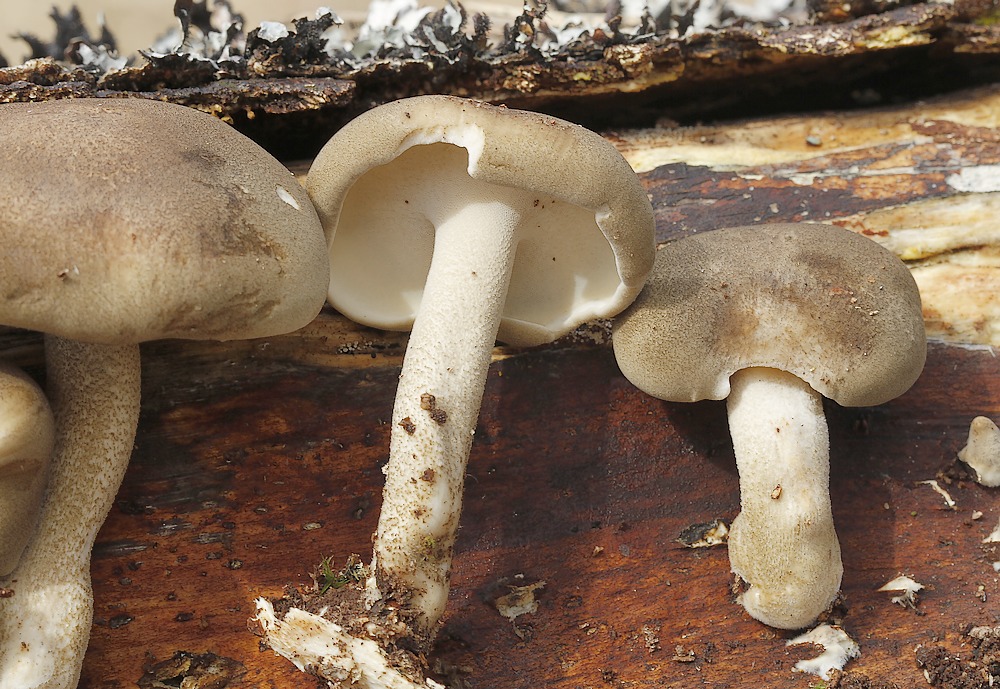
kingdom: Fungi
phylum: Basidiomycota
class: Agaricomycetes
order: Polyporales
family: Polyporaceae
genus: Lentinus
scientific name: Lentinus substrictus
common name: forårs-stilkporesvamp
